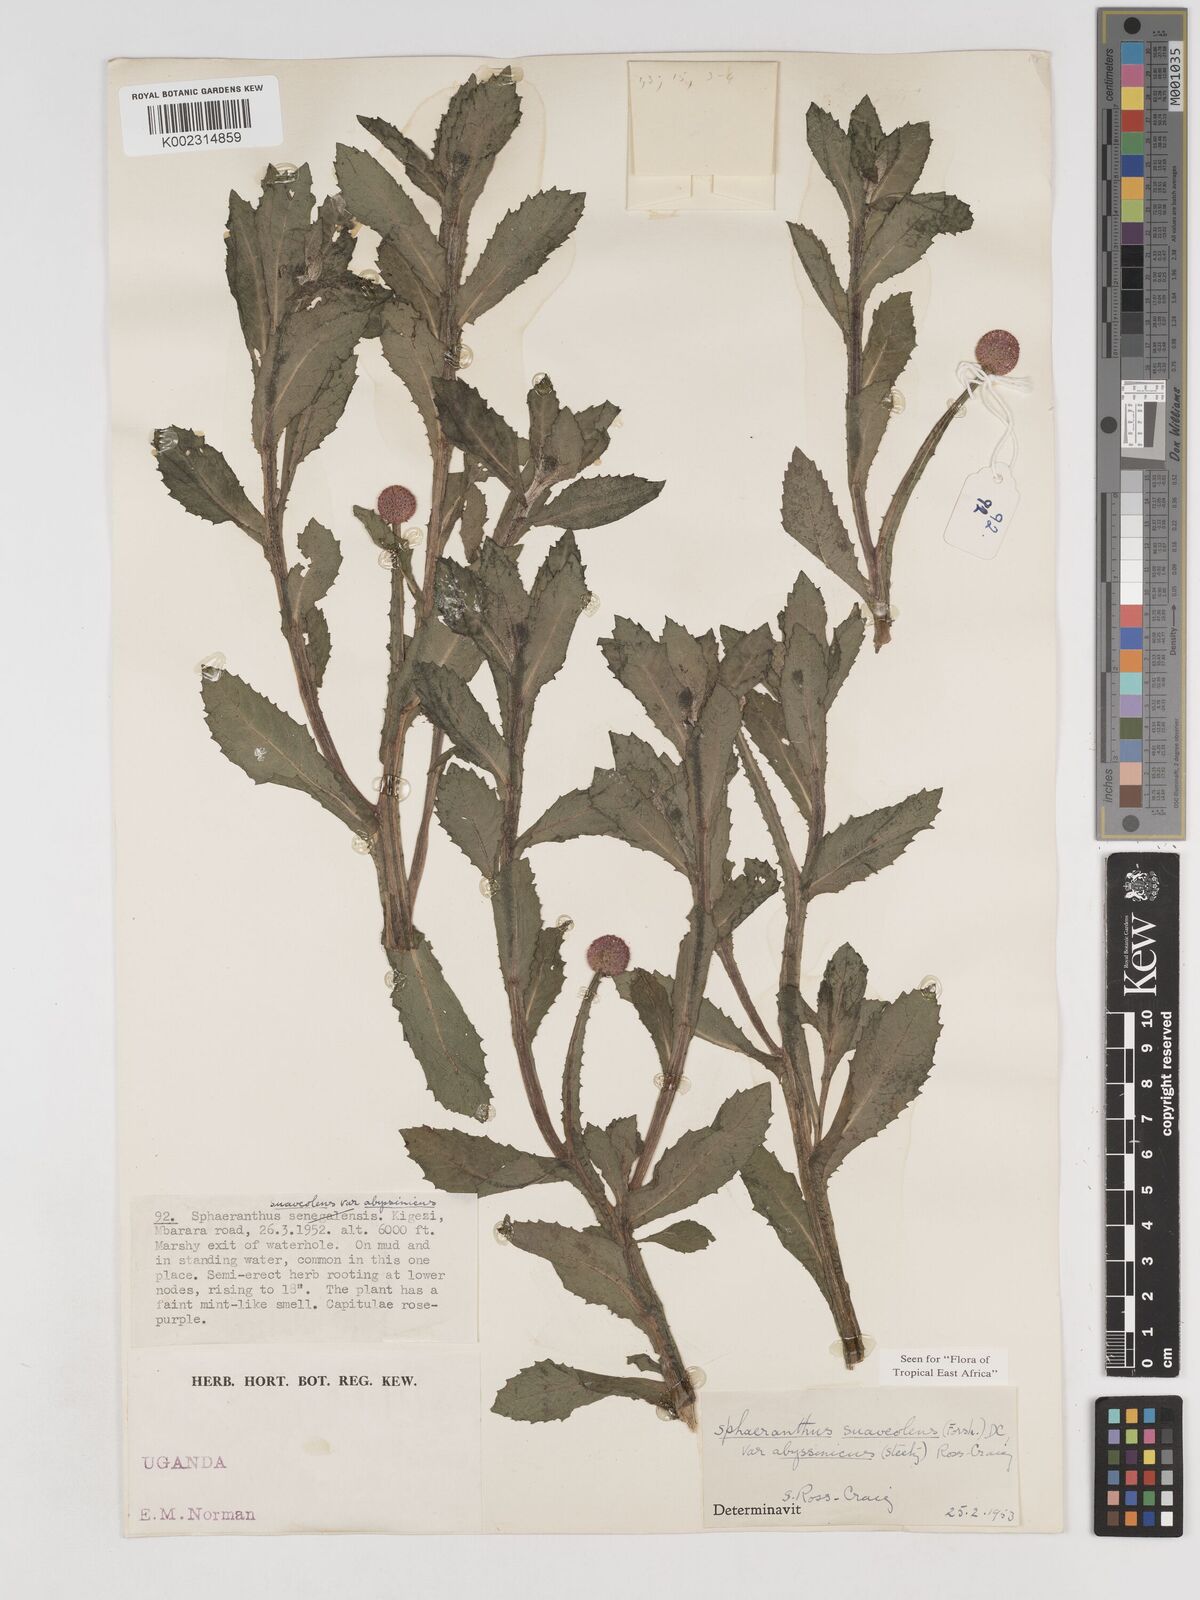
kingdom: Plantae
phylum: Tracheophyta
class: Magnoliopsida
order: Asterales
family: Asteraceae
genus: Sphaeranthus
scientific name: Sphaeranthus suaveolens
